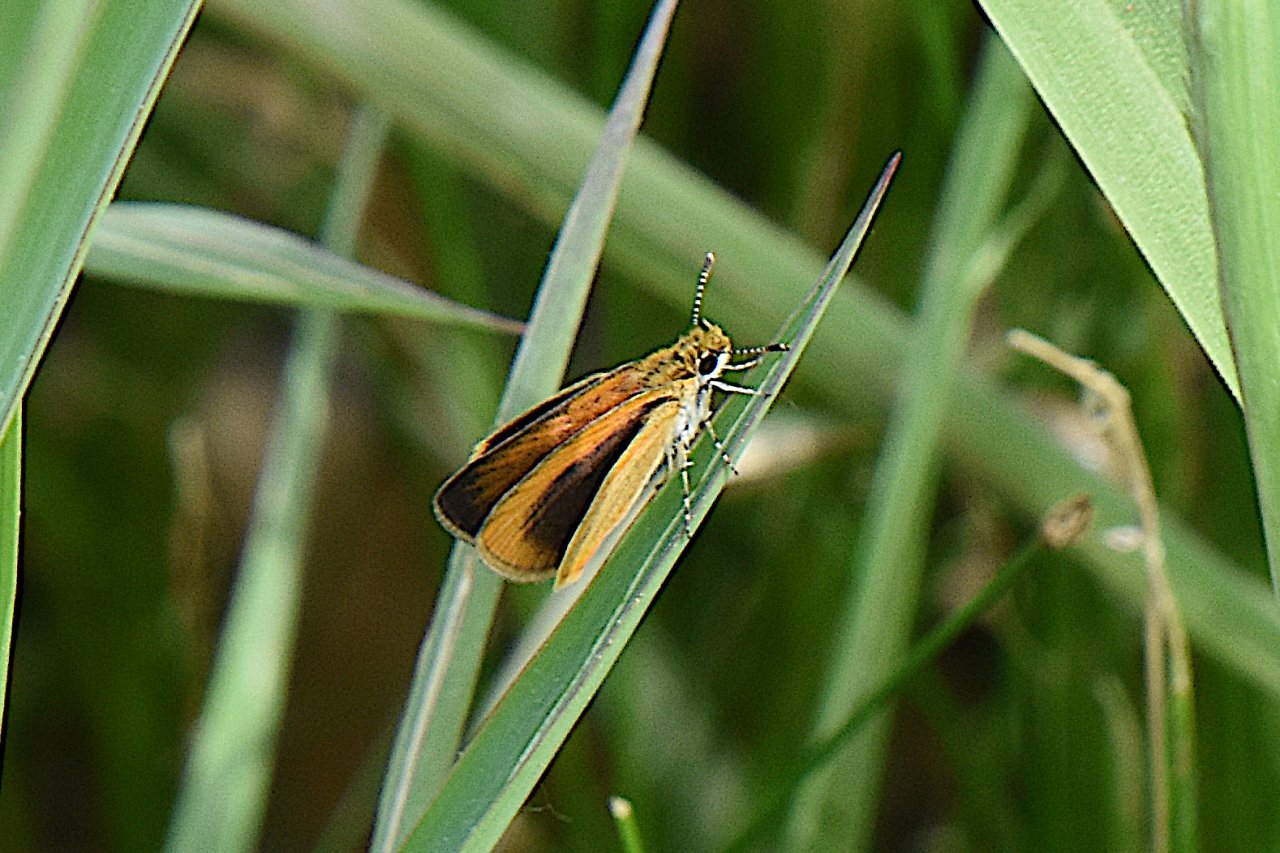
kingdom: Animalia
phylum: Arthropoda
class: Insecta
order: Lepidoptera
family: Hesperiidae
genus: Ancyloxypha
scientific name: Ancyloxypha numitor
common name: Least Skipper
